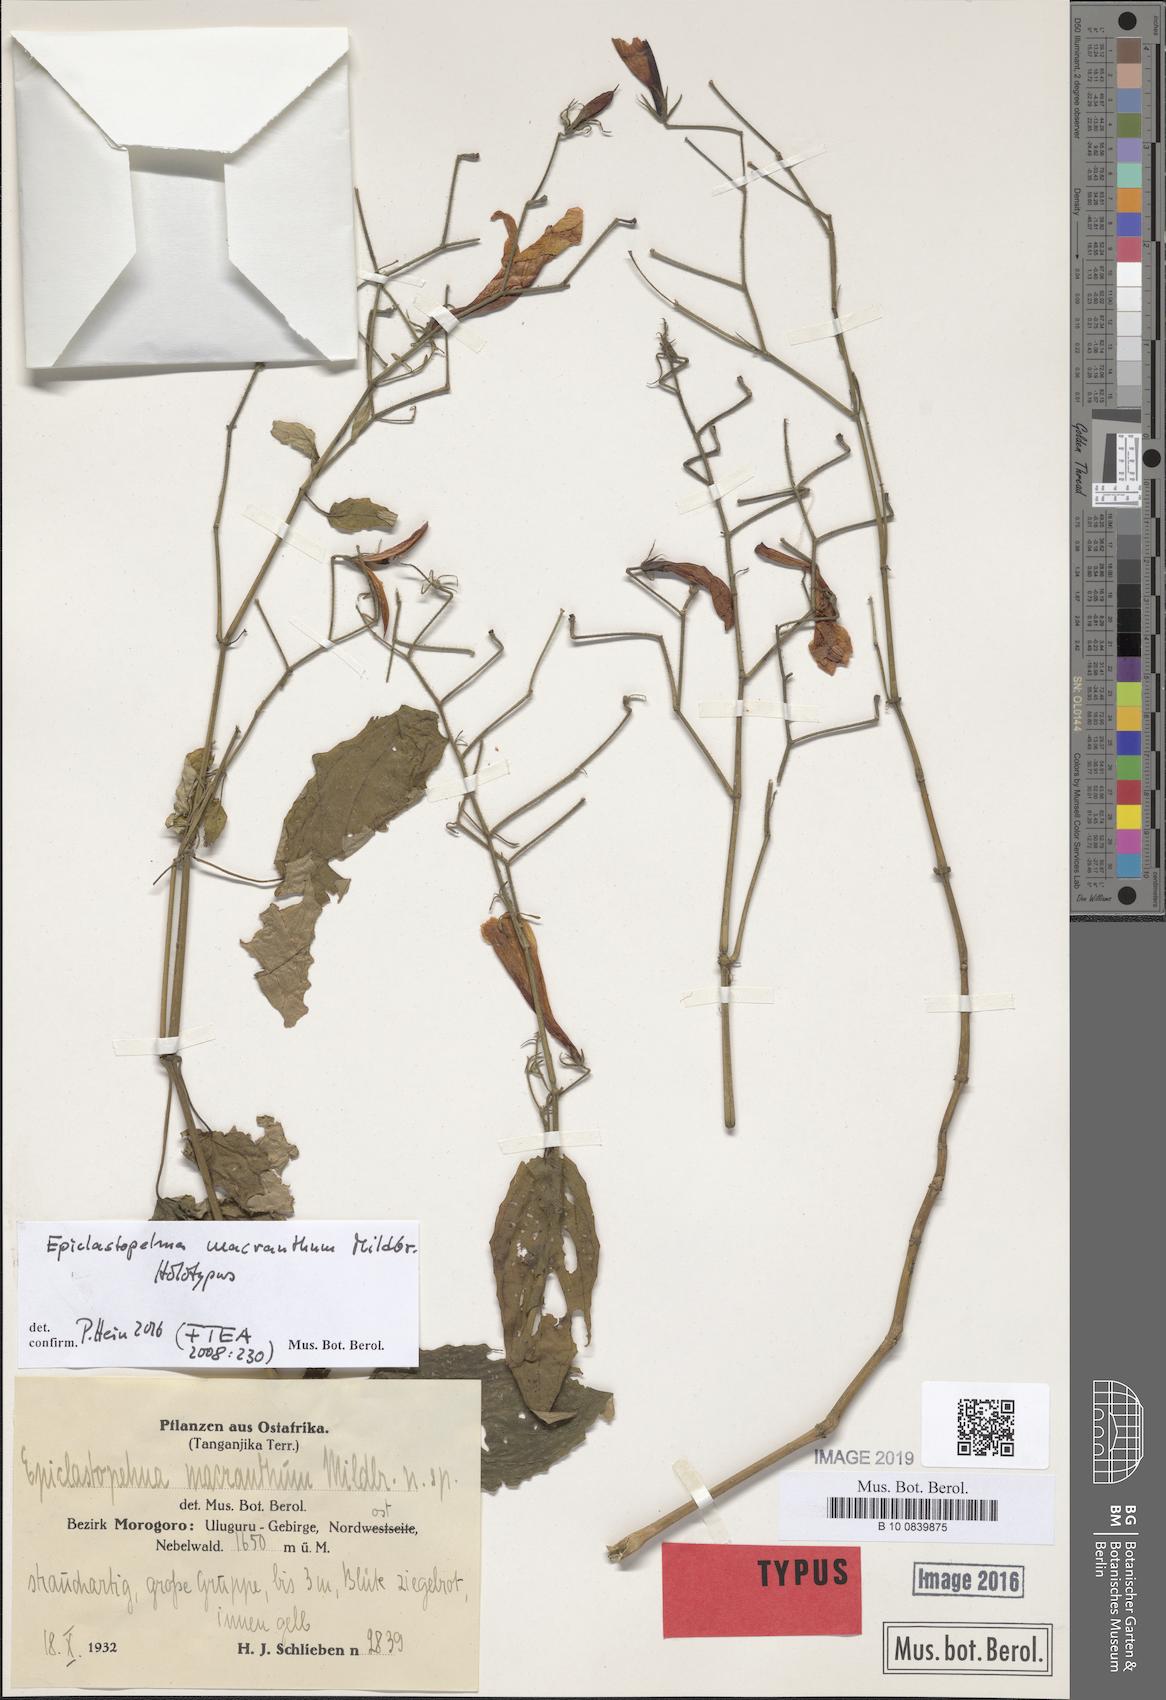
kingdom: Plantae
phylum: Tracheophyta
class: Magnoliopsida
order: Lamiales
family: Acanthaceae
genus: Mimulopsis
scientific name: Mimulopsis macrantha
